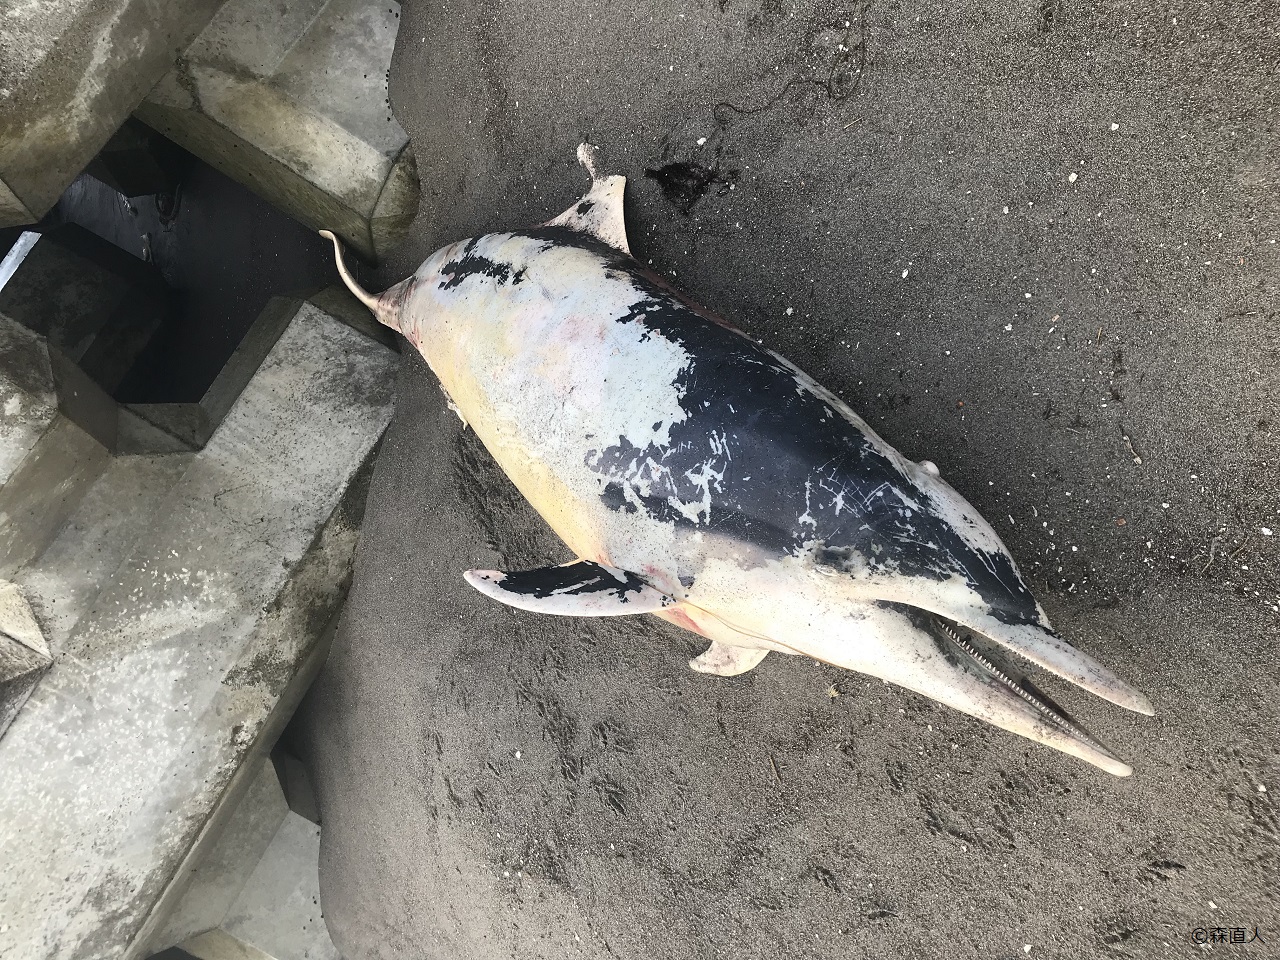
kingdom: Animalia
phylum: Chordata
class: Mammalia
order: Cetacea
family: Delphinidae
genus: Stenella
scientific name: Stenella coeruleoalba
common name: Striped dolphin
